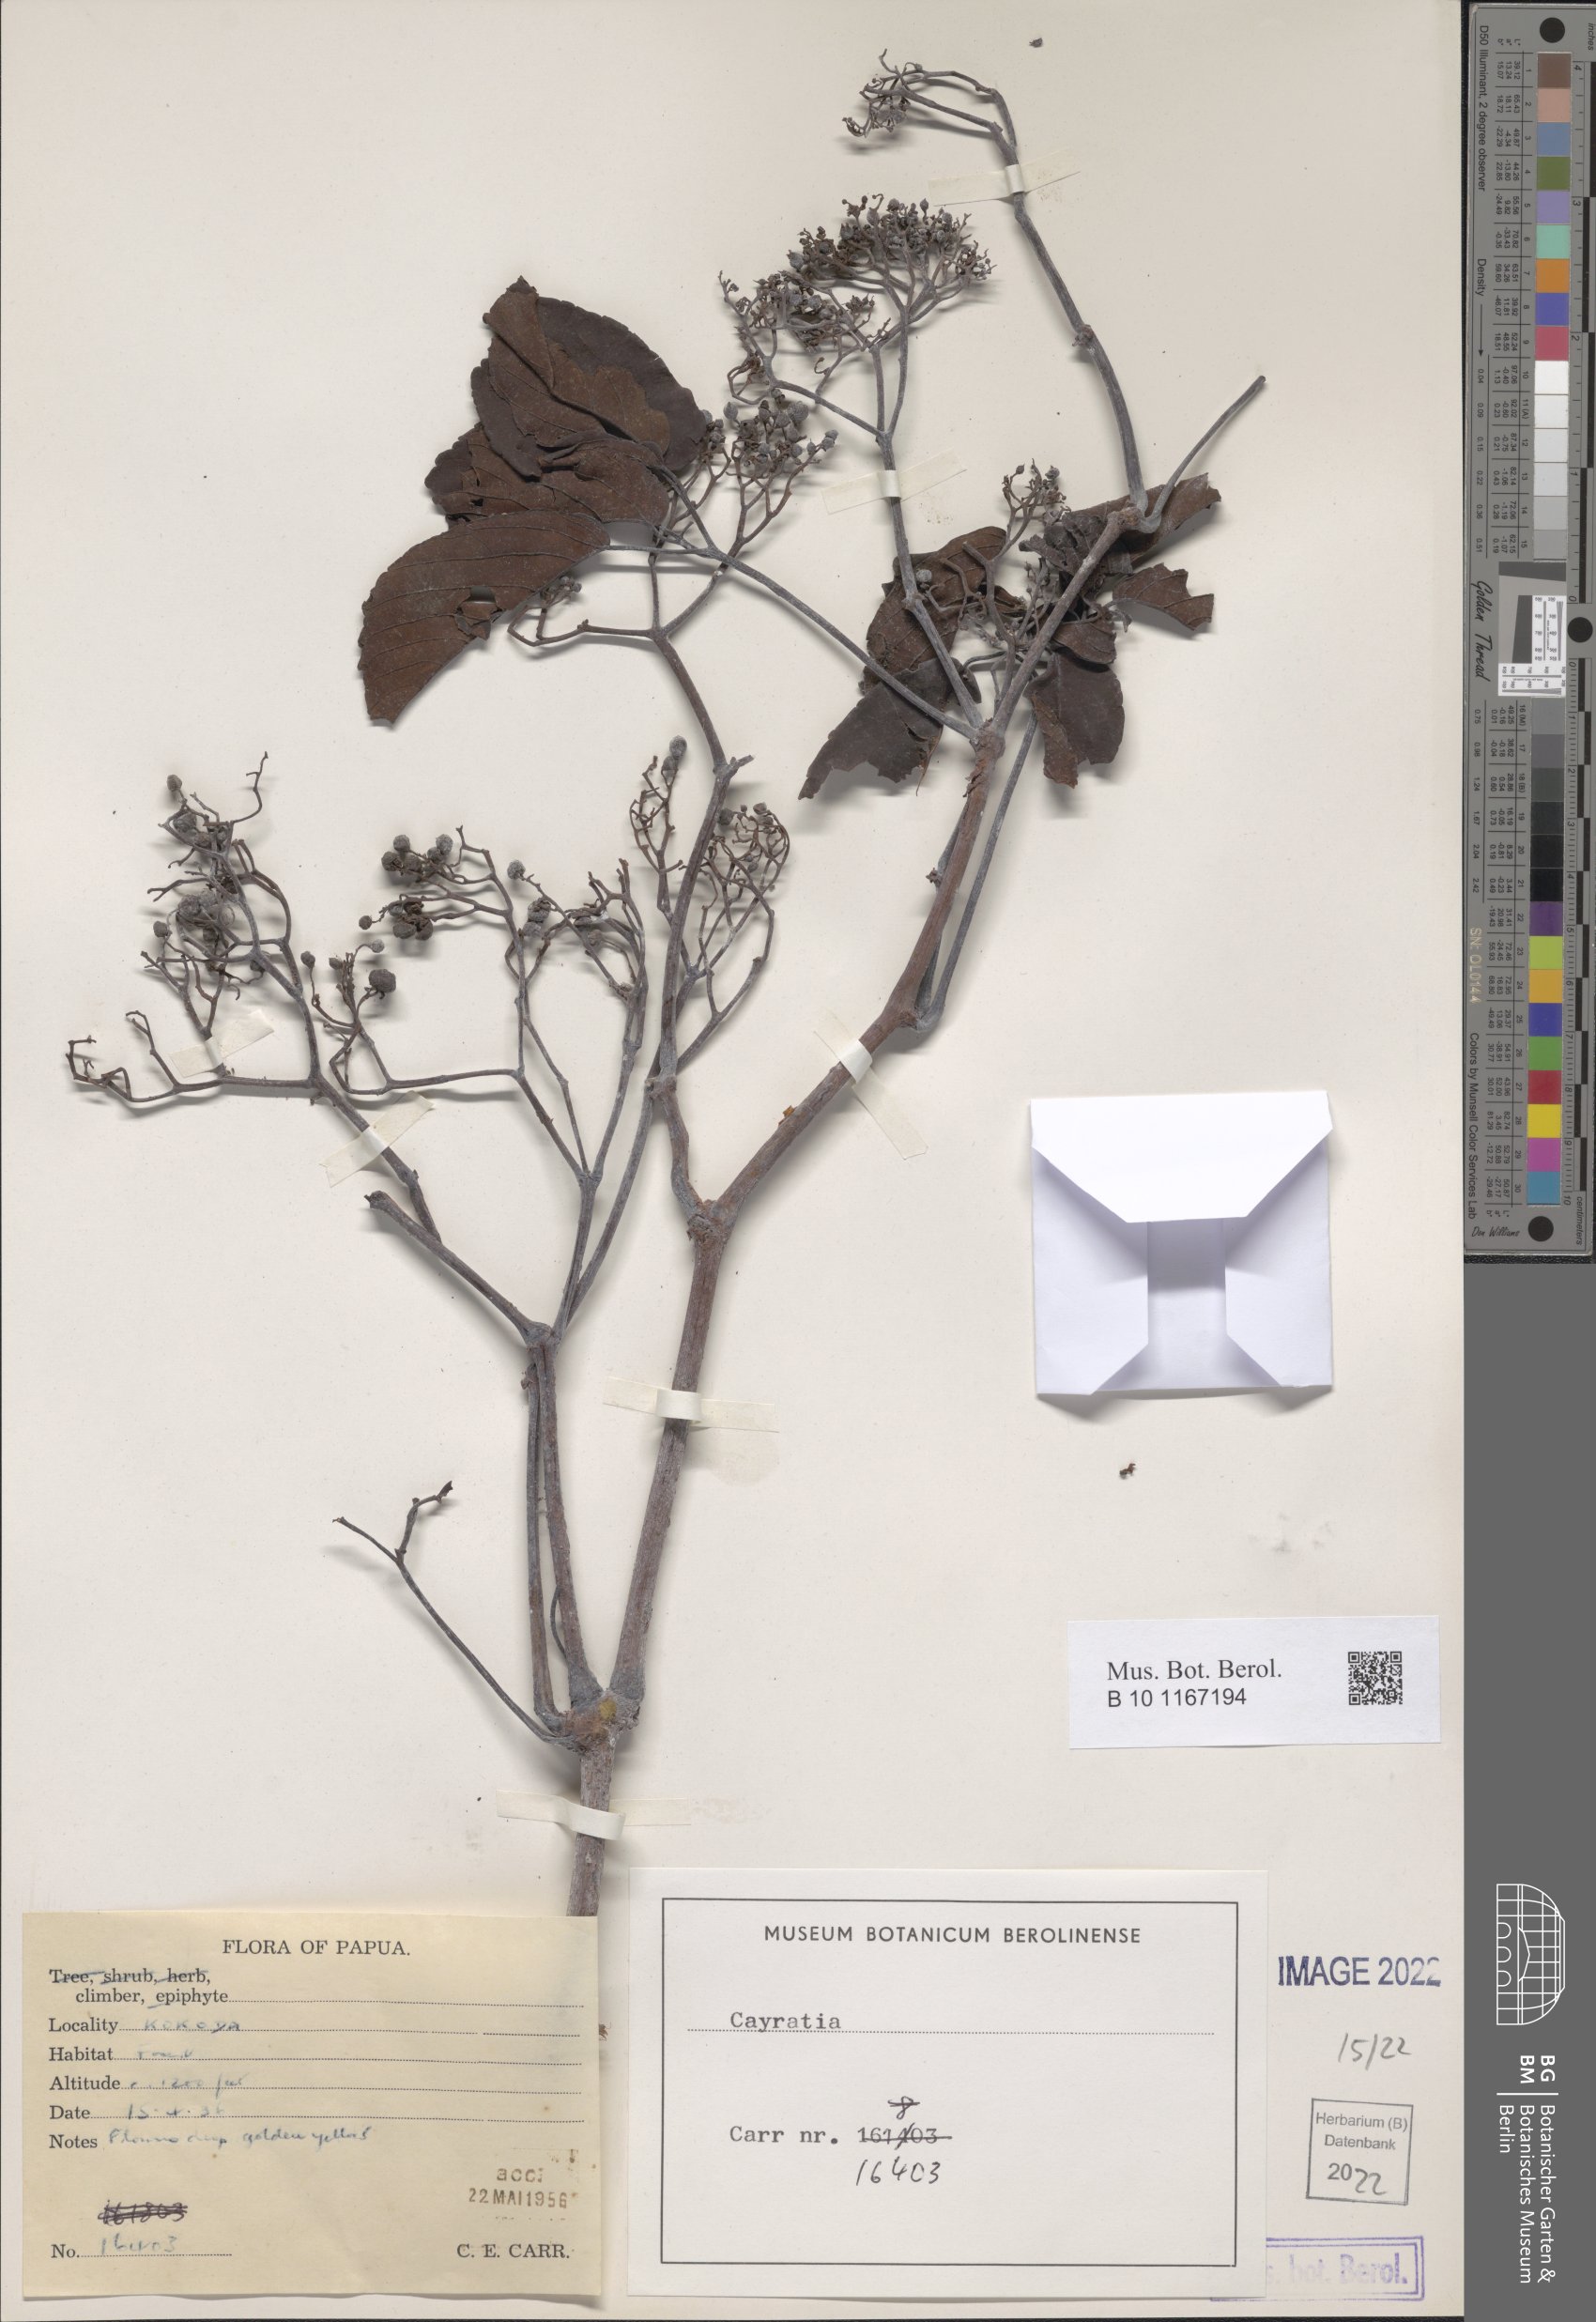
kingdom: Plantae
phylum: Tracheophyta
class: Magnoliopsida
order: Vitales
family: Vitaceae
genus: Cayratia
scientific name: Cayratia
